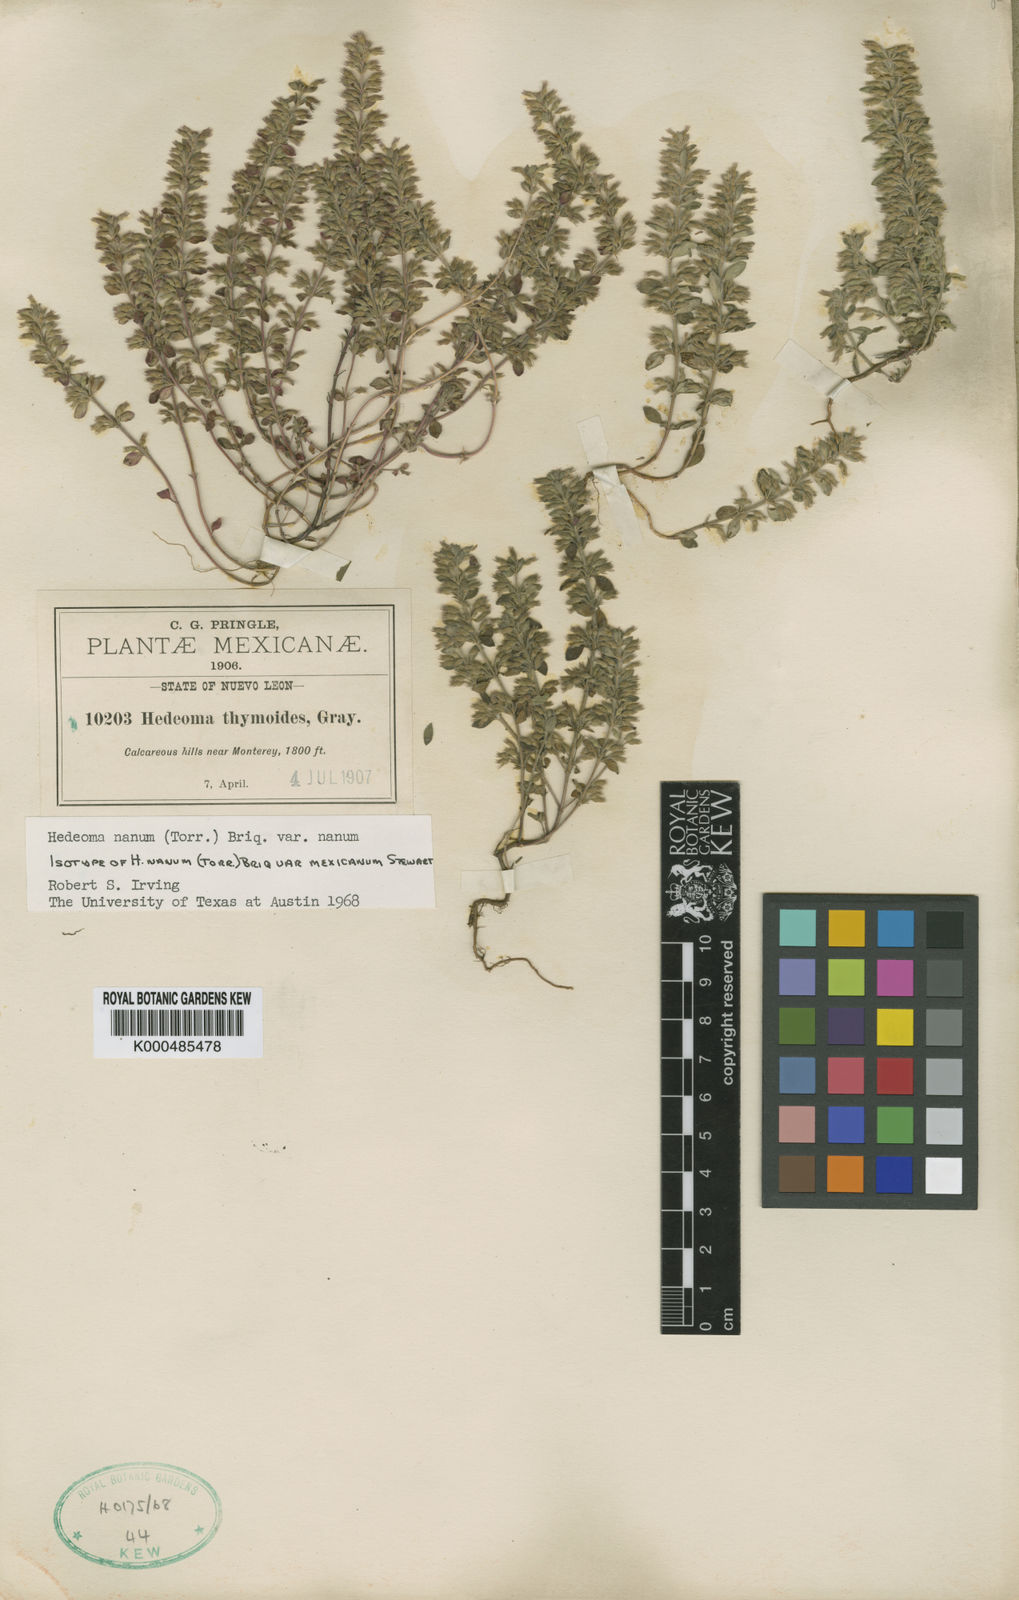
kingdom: Plantae
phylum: Tracheophyta
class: Magnoliopsida
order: Lamiales
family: Lamiaceae
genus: Hedeoma
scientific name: Hedeoma nana
